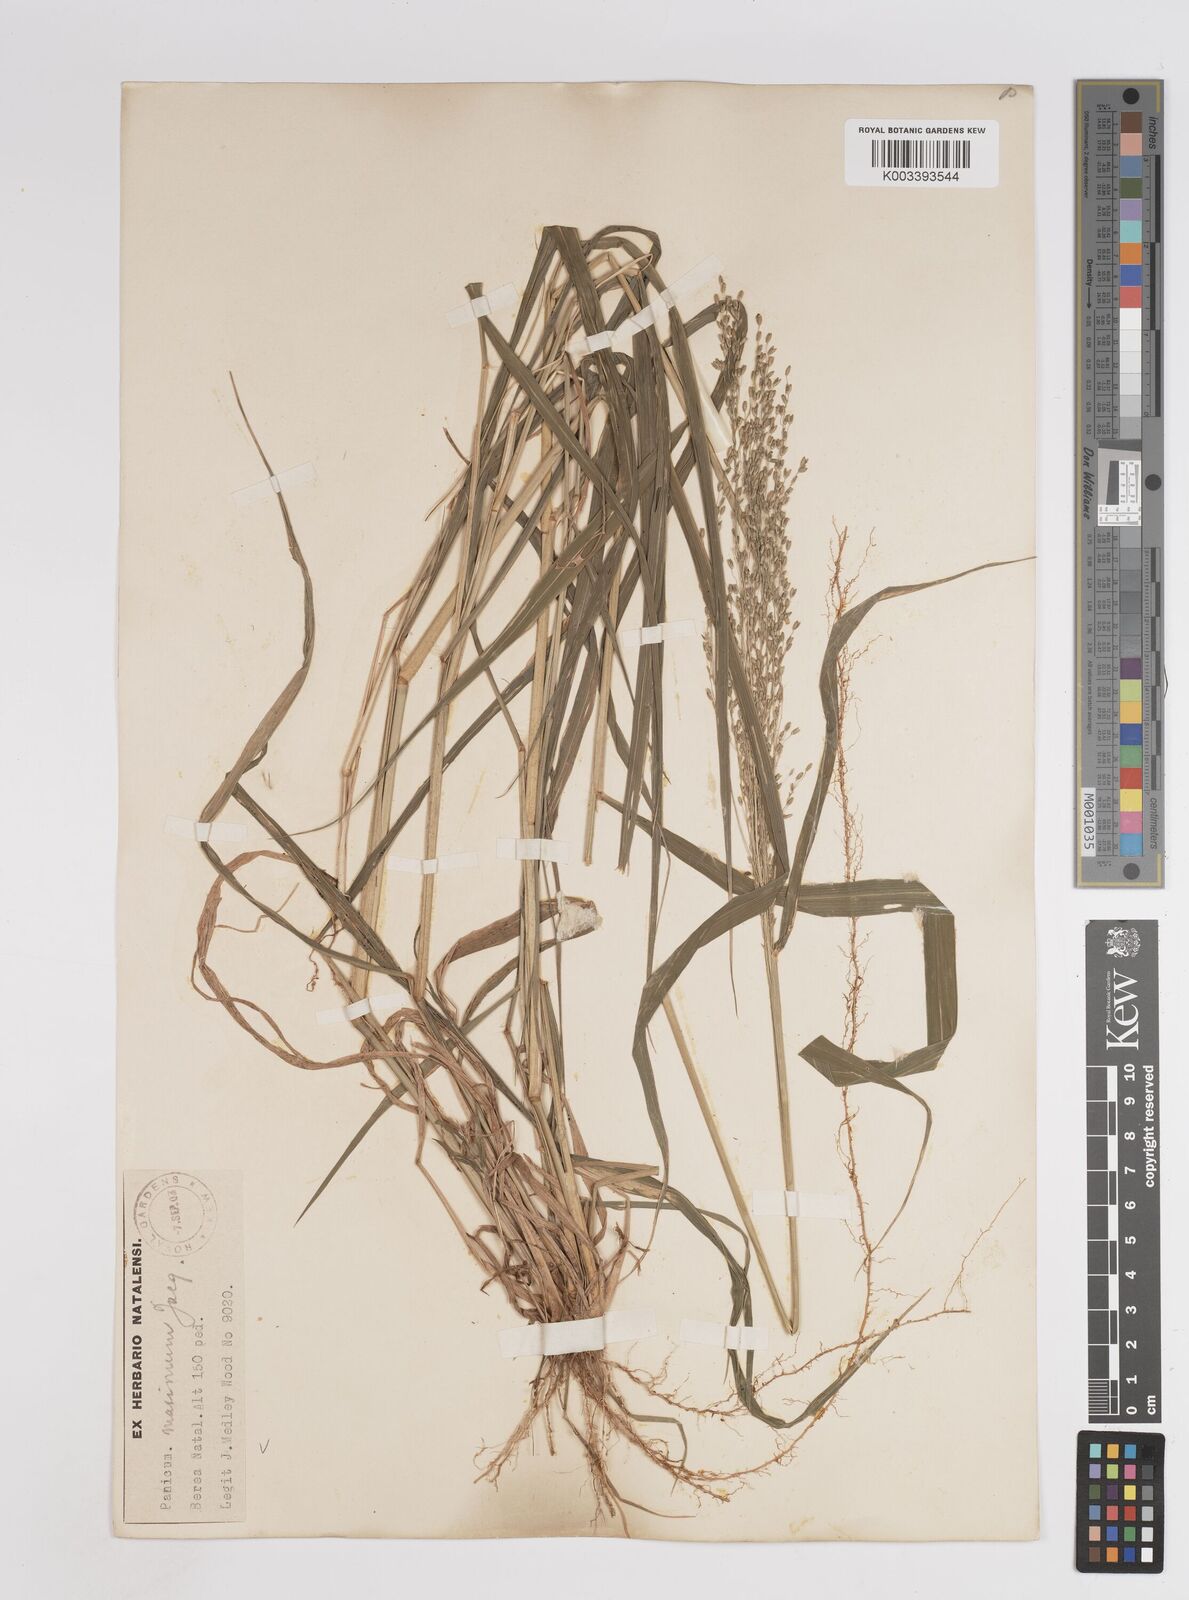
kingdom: Plantae
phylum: Tracheophyta
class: Liliopsida
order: Poales
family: Poaceae
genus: Megathyrsus
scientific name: Megathyrsus maximus
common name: Guineagrass
